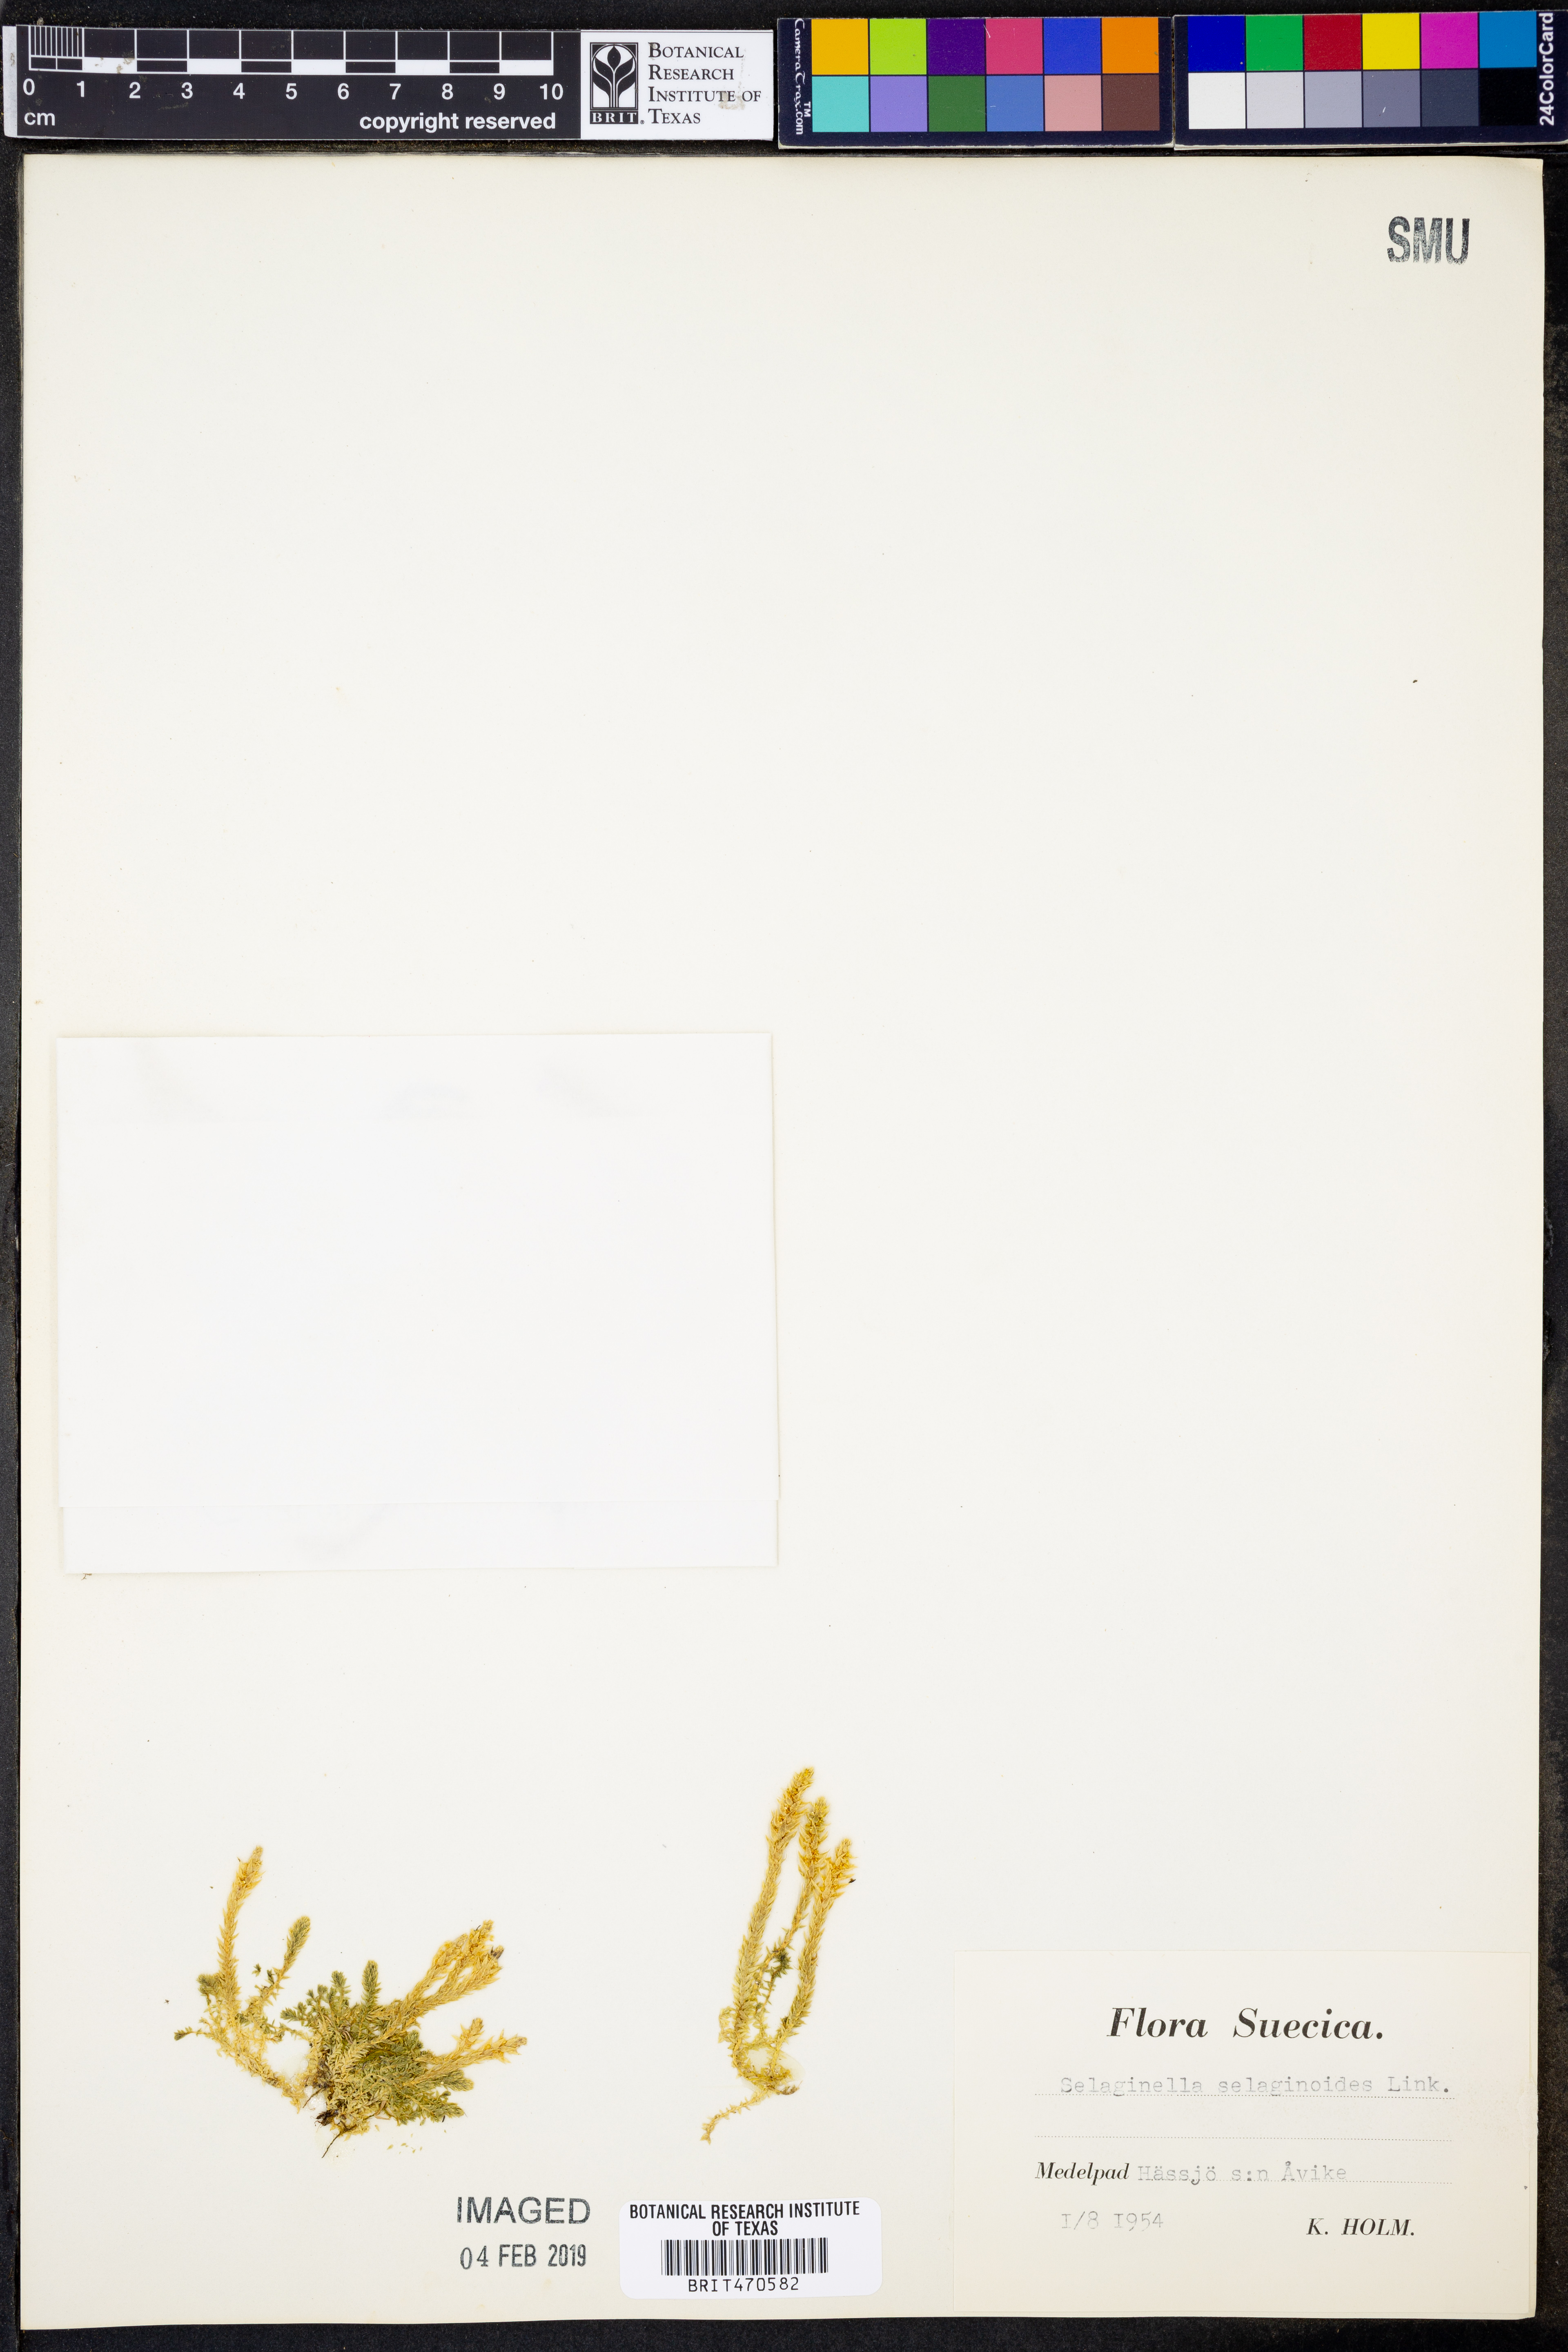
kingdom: Plantae
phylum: Tracheophyta
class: Lycopodiopsida
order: Selaginellales
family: Selaginellaceae
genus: Selaginella
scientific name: Selaginella selaginoides
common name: Prickly mountain-moss
